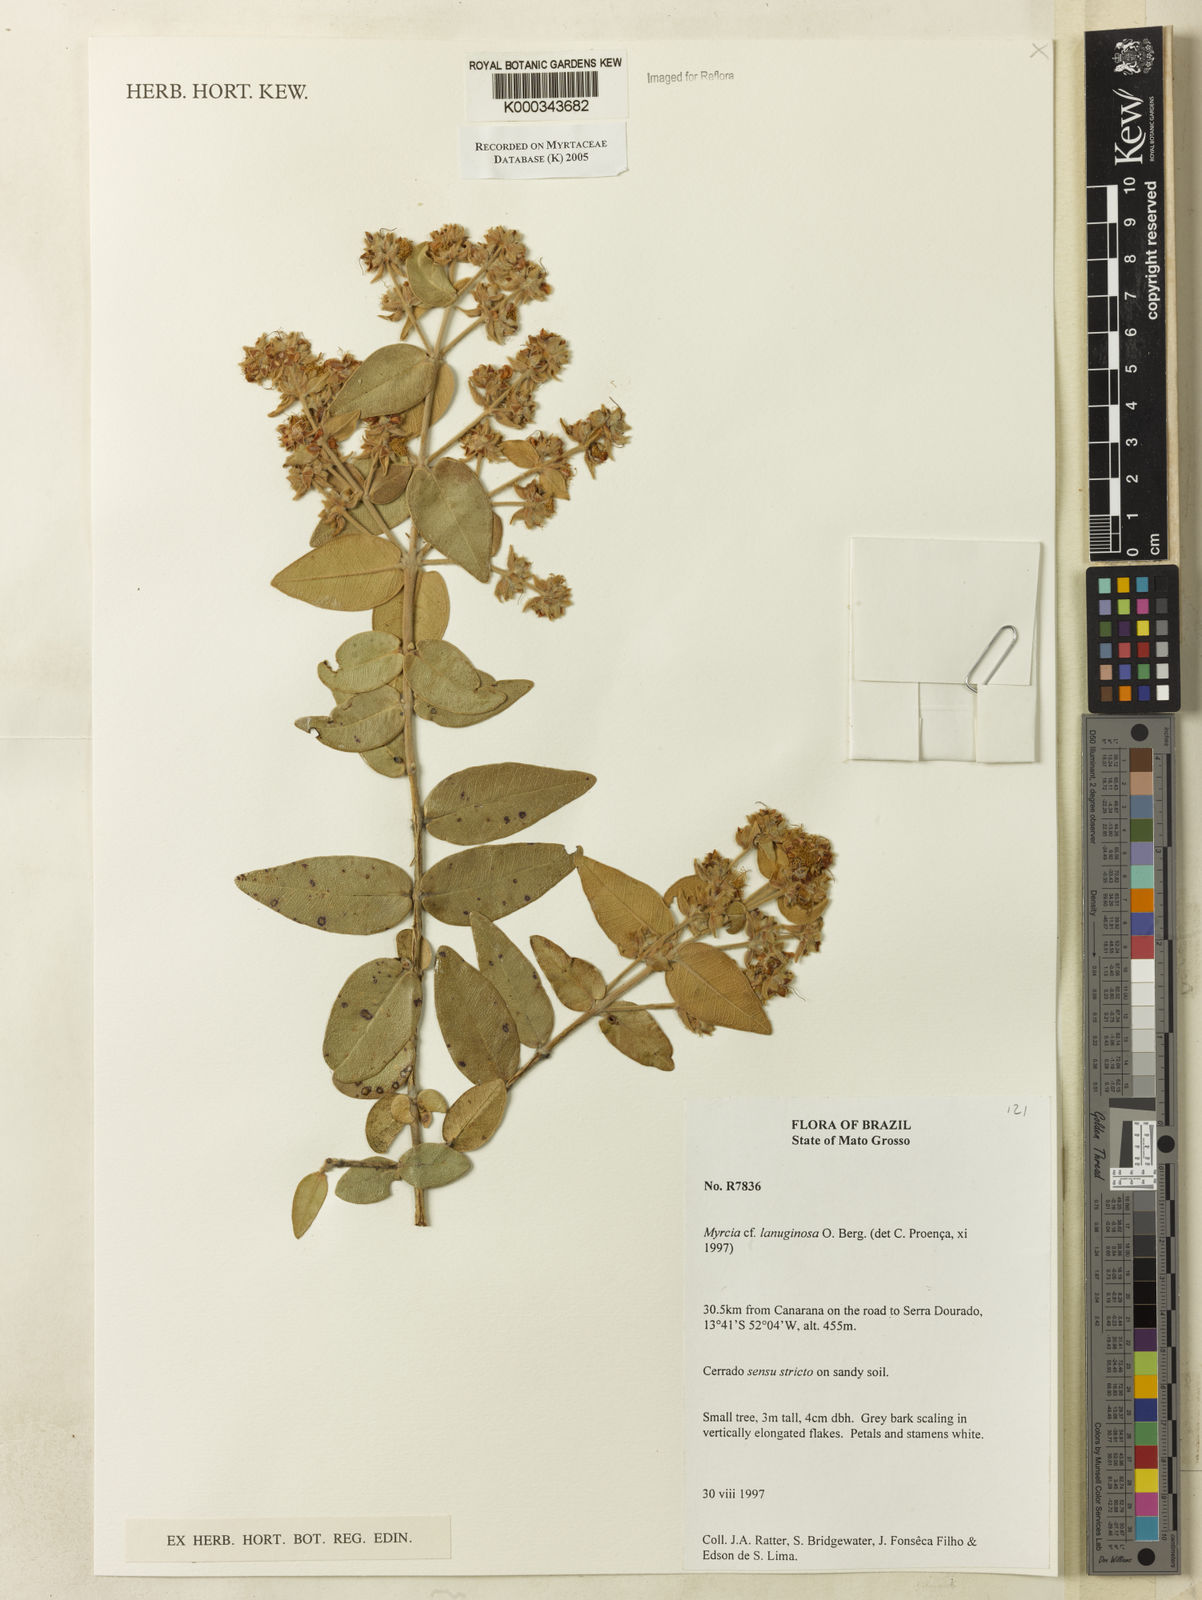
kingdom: Plantae
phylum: Tracheophyta
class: Magnoliopsida
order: Myrtales
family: Myrtaceae
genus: Myrcia
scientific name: Myrcia lanuginosa
